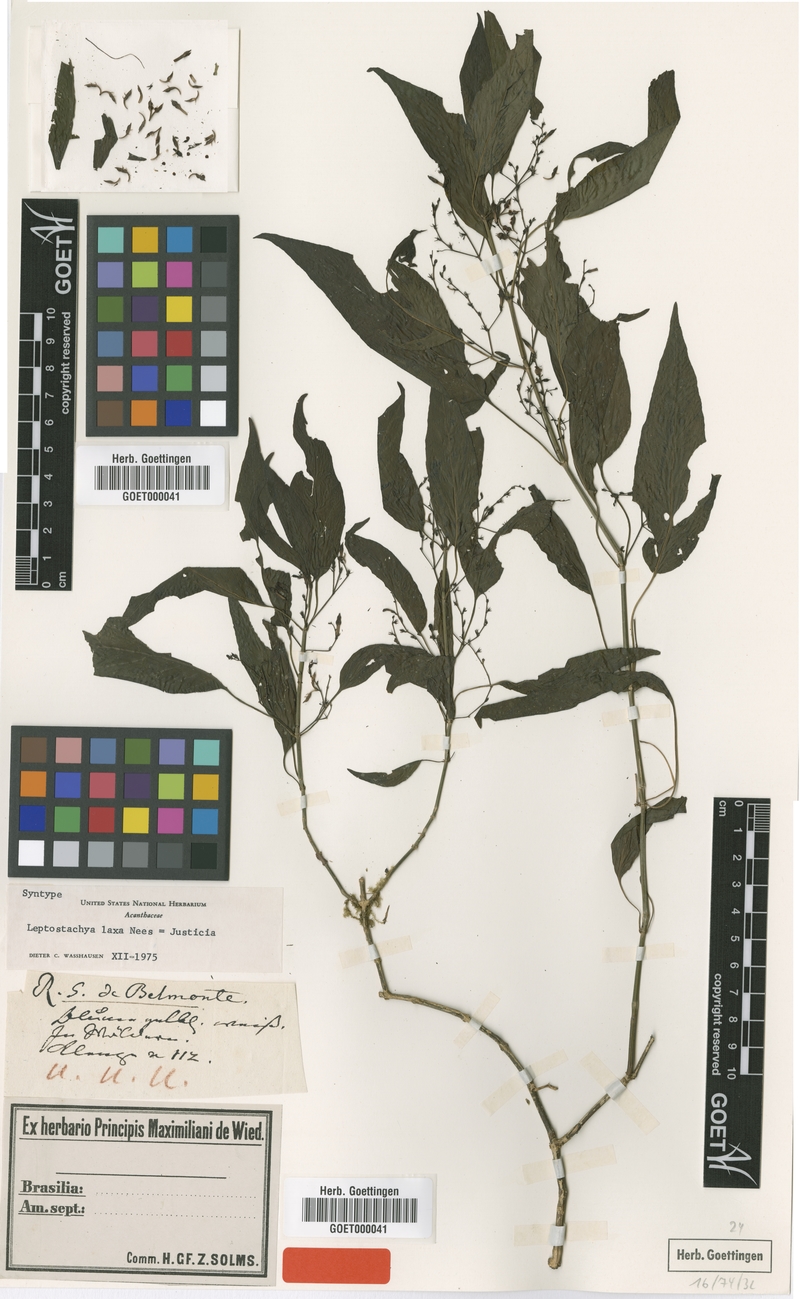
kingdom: Plantae
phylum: Tracheophyta
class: Magnoliopsida
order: Lamiales
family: Acanthaceae
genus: Justicia
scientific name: Justicia flosculosa
